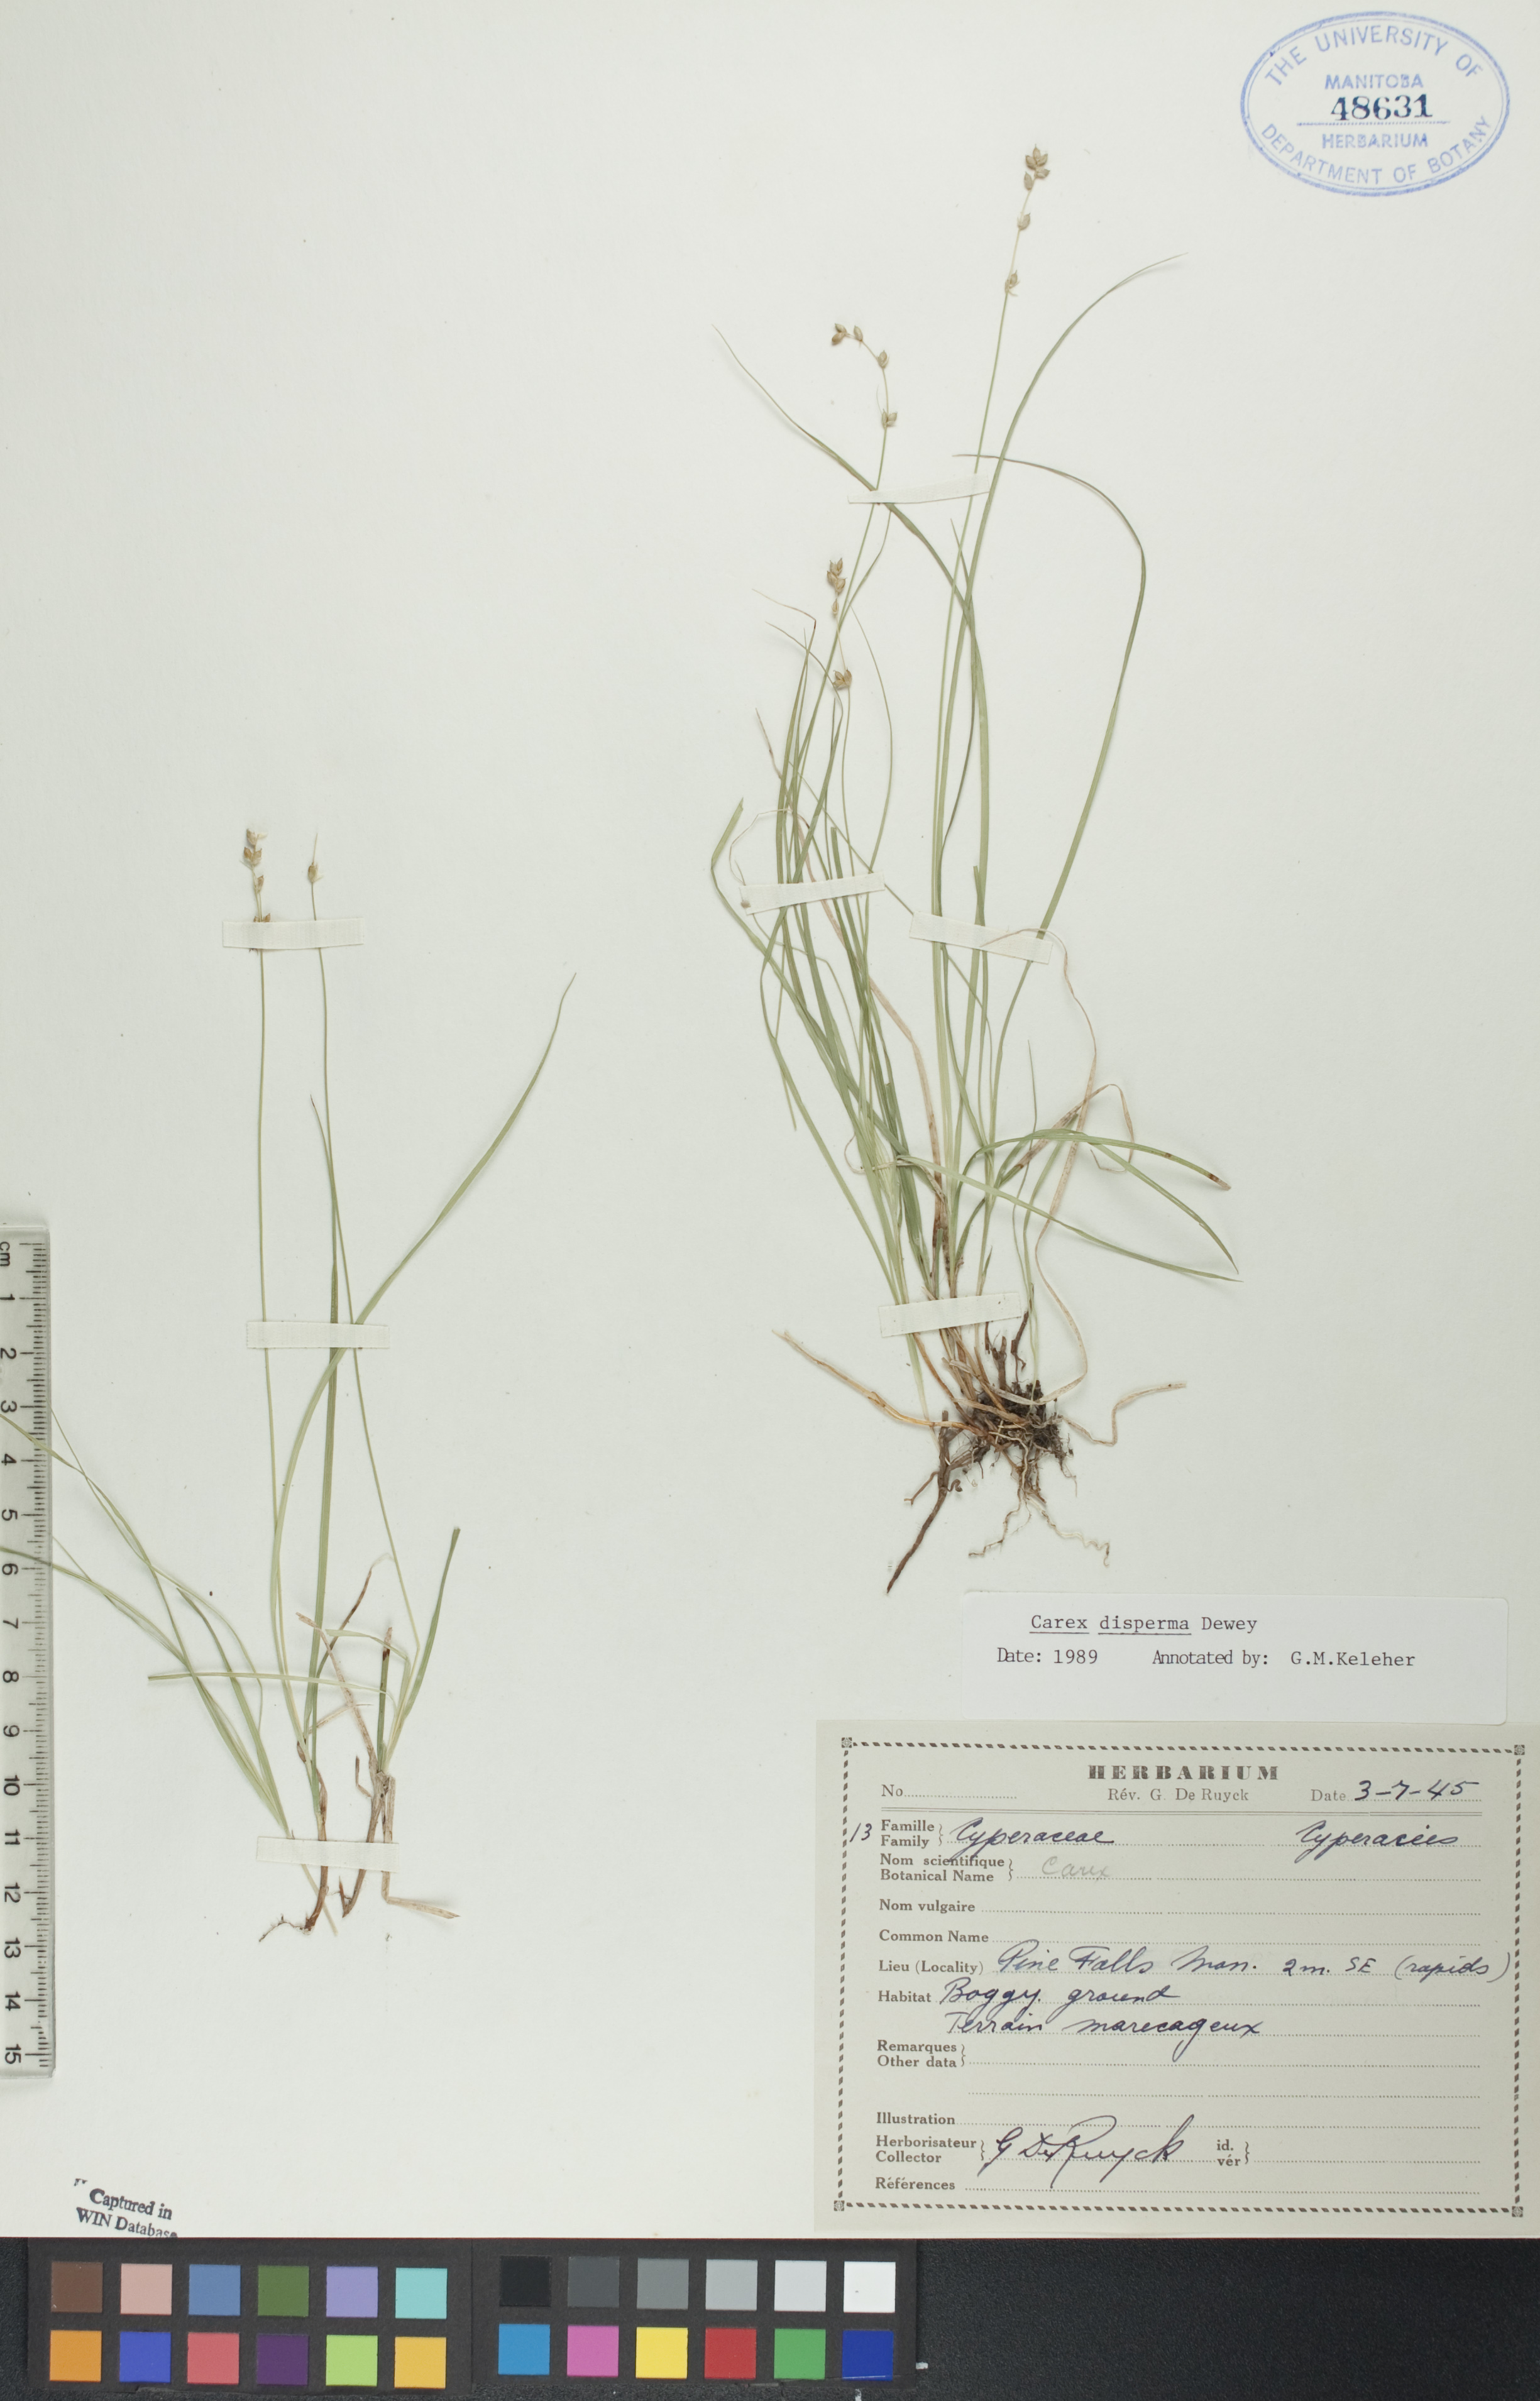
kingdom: Plantae
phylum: Tracheophyta
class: Liliopsida
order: Poales
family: Cyperaceae
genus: Carex
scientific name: Carex disperma
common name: Short-leaved sedge
